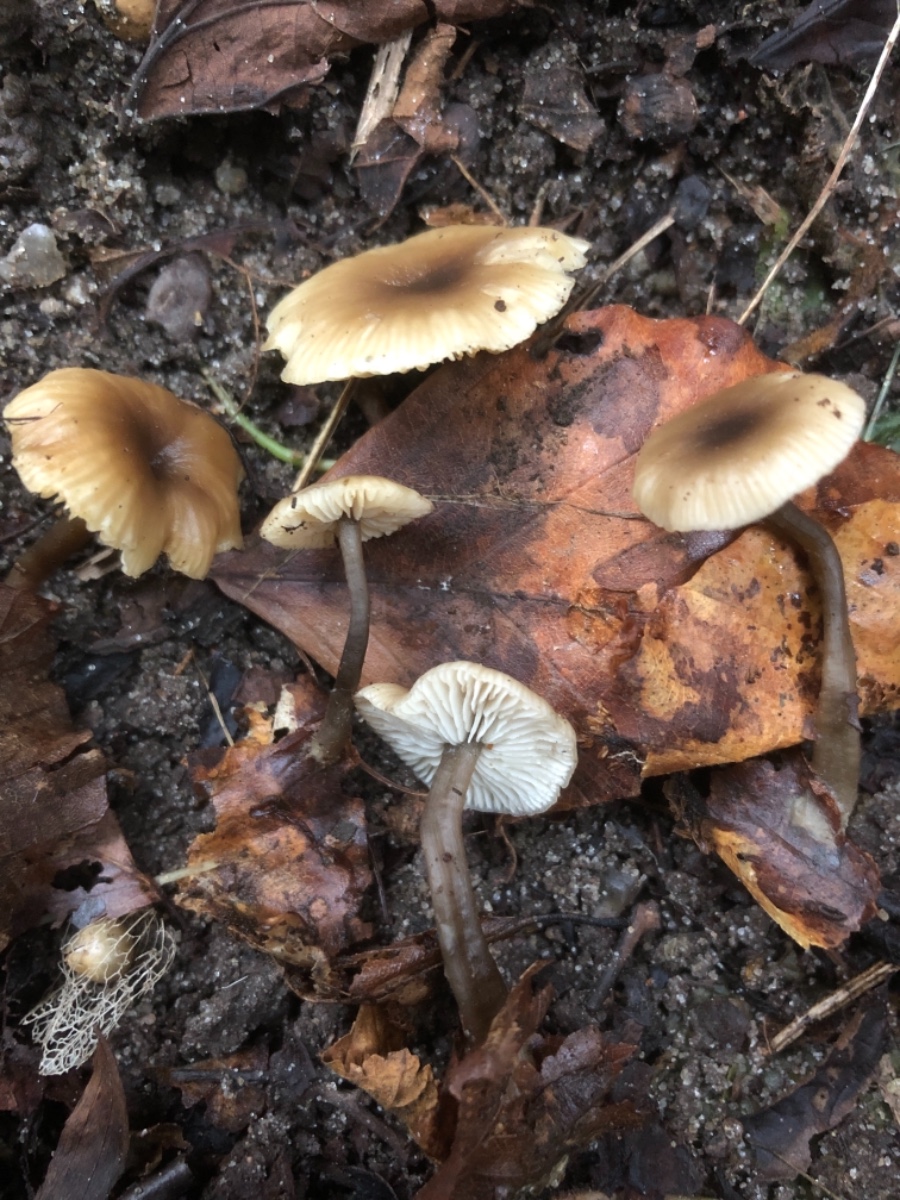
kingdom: Fungi
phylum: Basidiomycota
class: Agaricomycetes
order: Agaricales
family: Lyophyllaceae
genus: Tephrocybe
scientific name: Tephrocybe striipilea
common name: stribet gråblad
